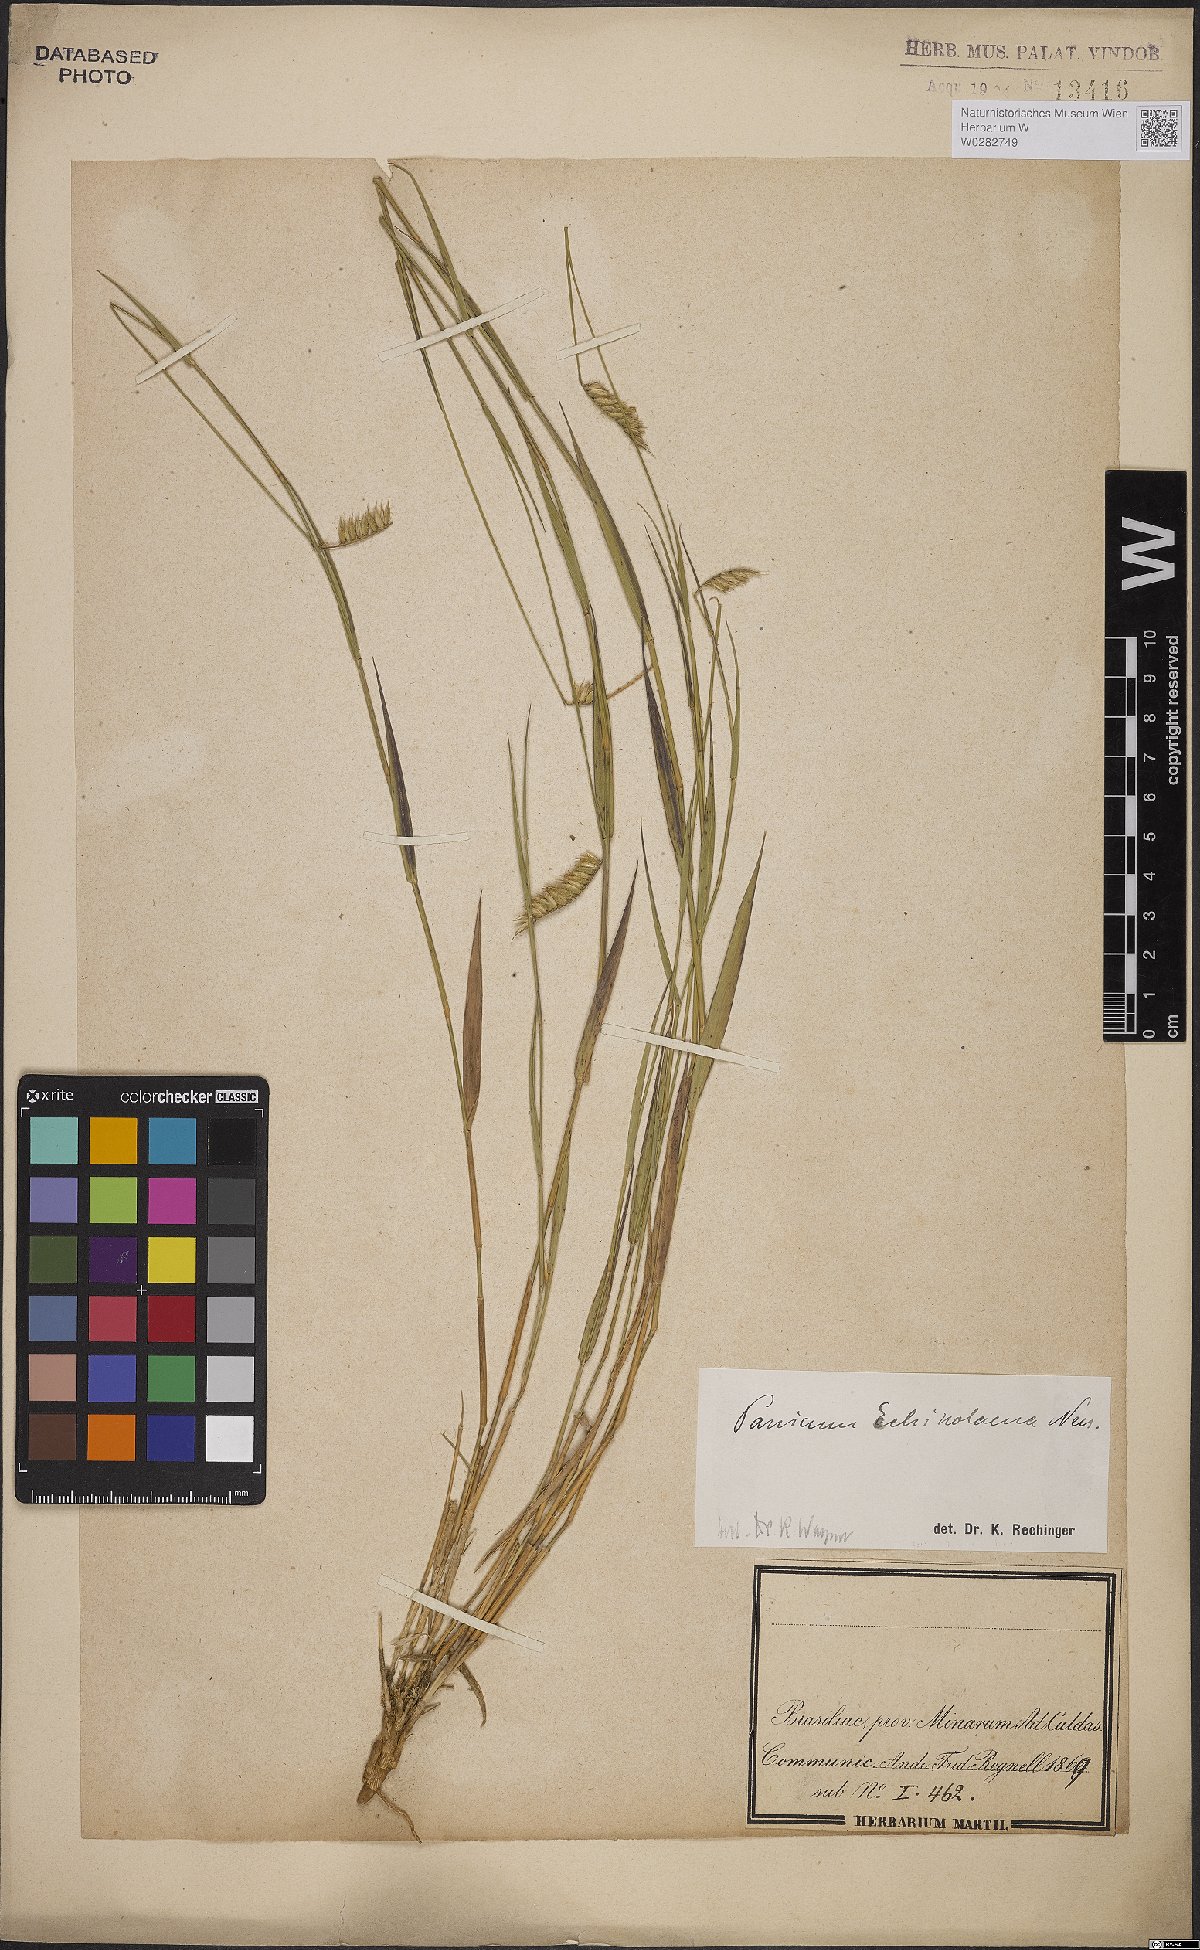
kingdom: Plantae
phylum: Tracheophyta
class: Liliopsida
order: Poales
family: Poaceae
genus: Echinolaena
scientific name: Echinolaena inflexa
